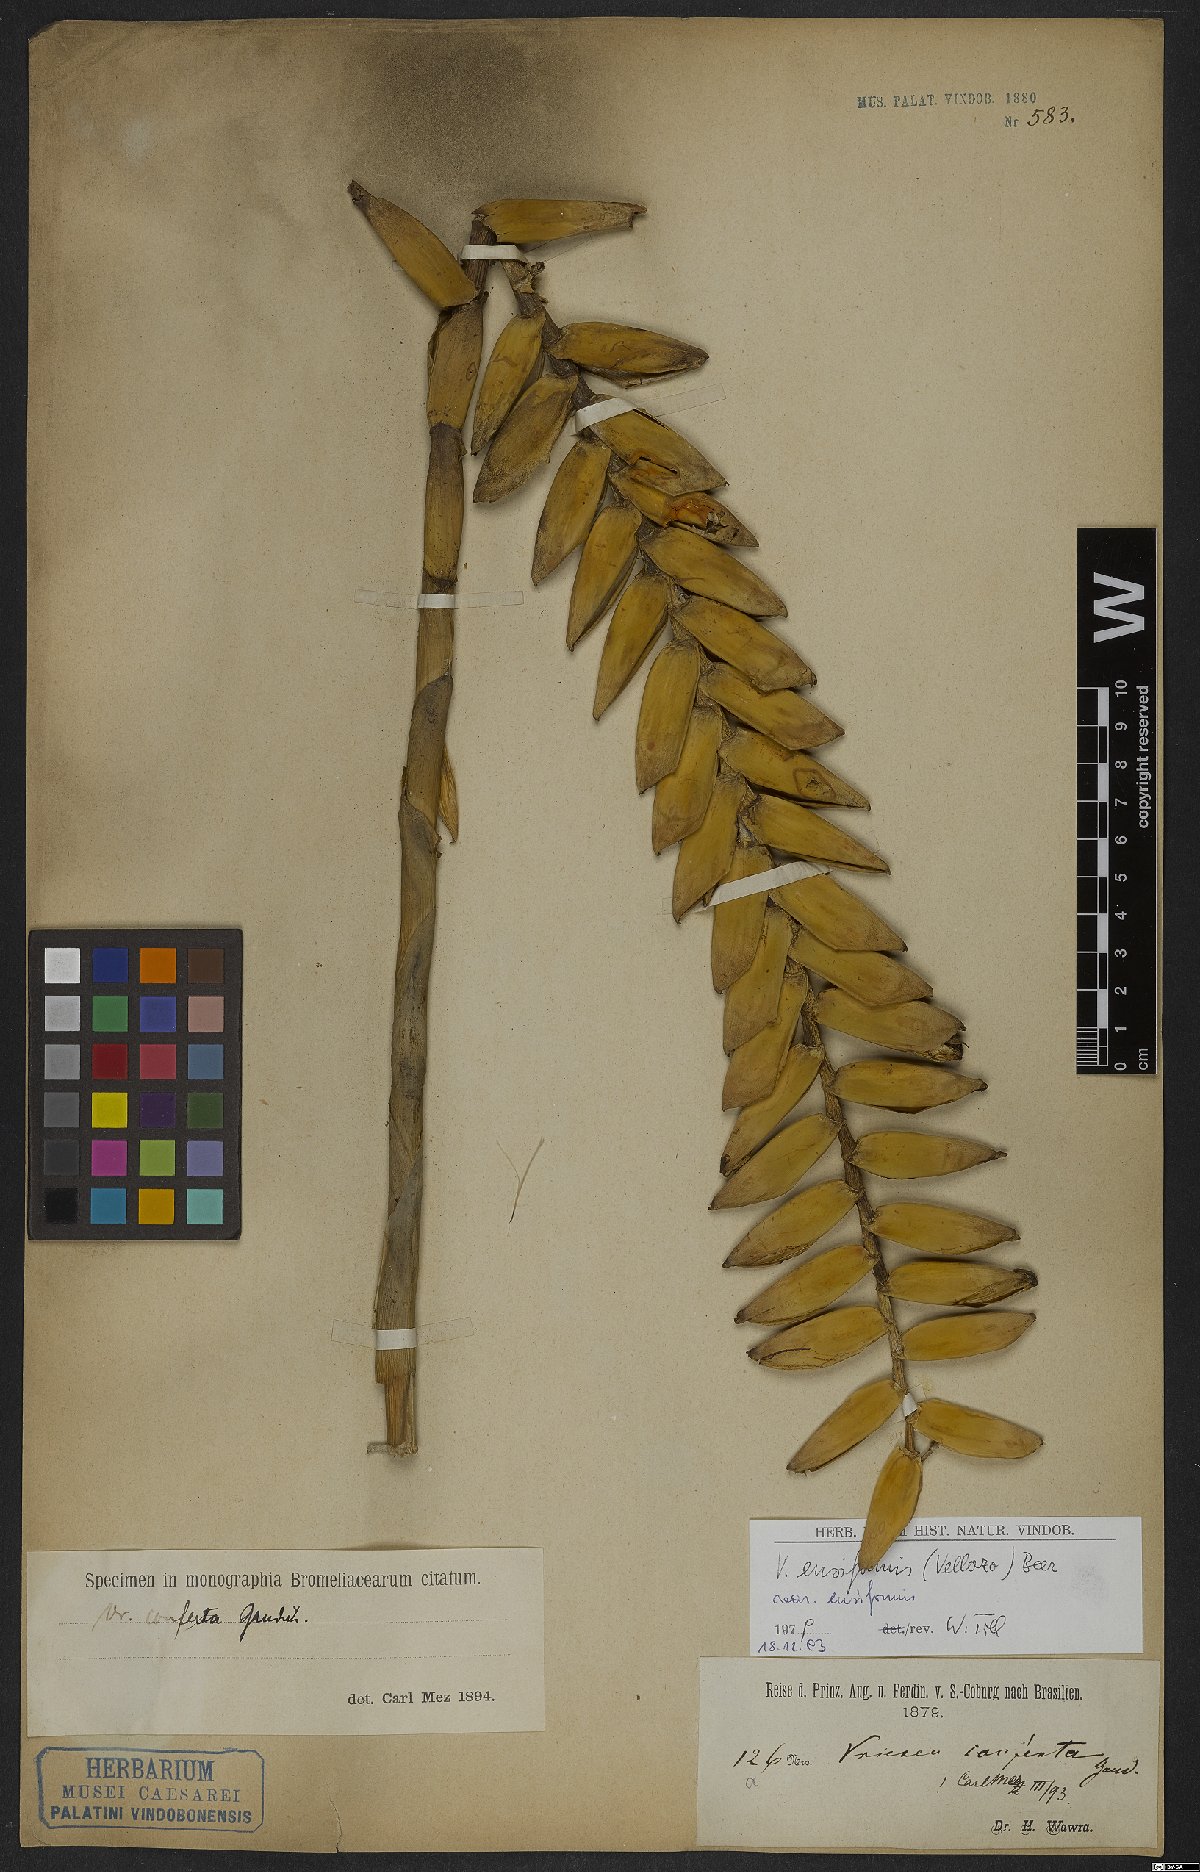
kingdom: Plantae
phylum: Tracheophyta
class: Liliopsida
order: Poales
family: Bromeliaceae
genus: Vriesea
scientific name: Vriesea ensiformis
